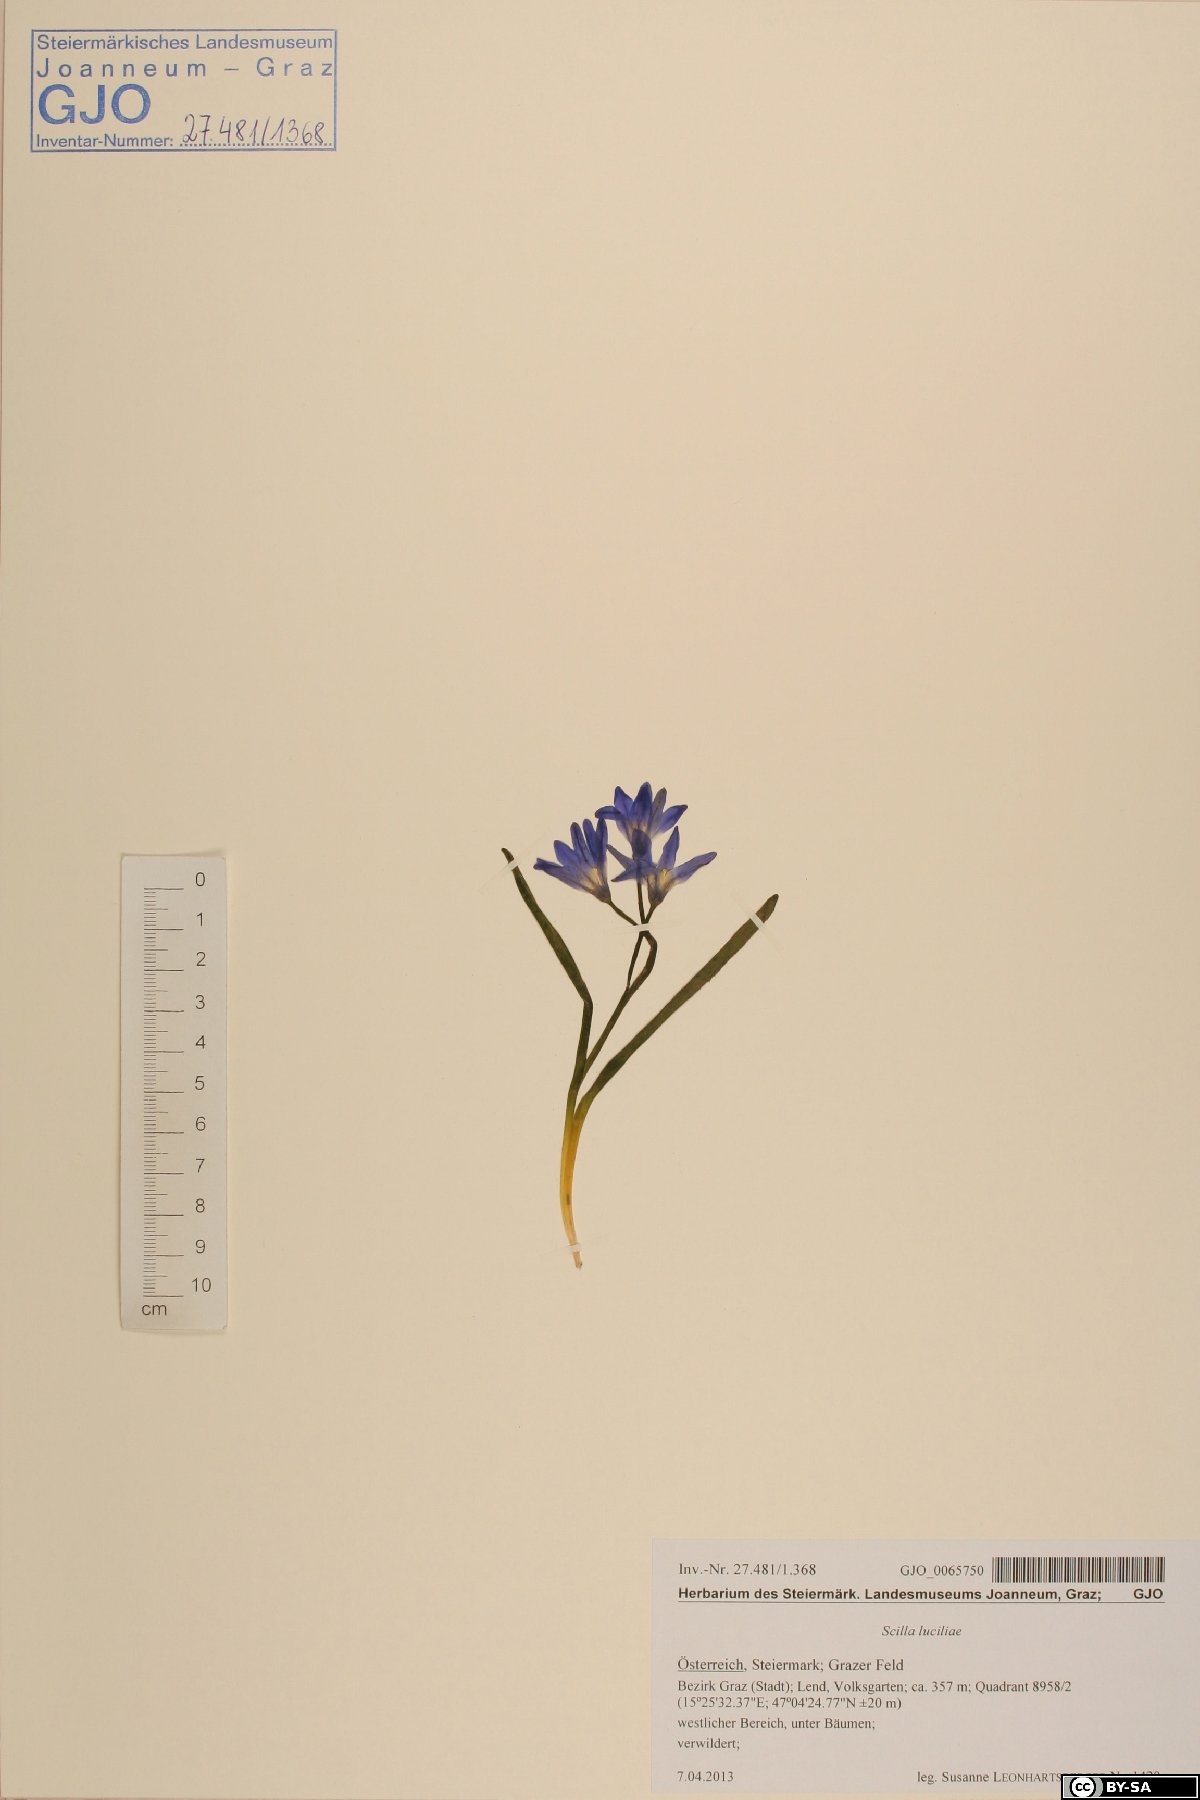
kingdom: Plantae
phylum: Tracheophyta
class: Liliopsida
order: Asparagales
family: Asparagaceae
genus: Scilla
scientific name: Scilla forbesii
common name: Glory-of-the-snow
